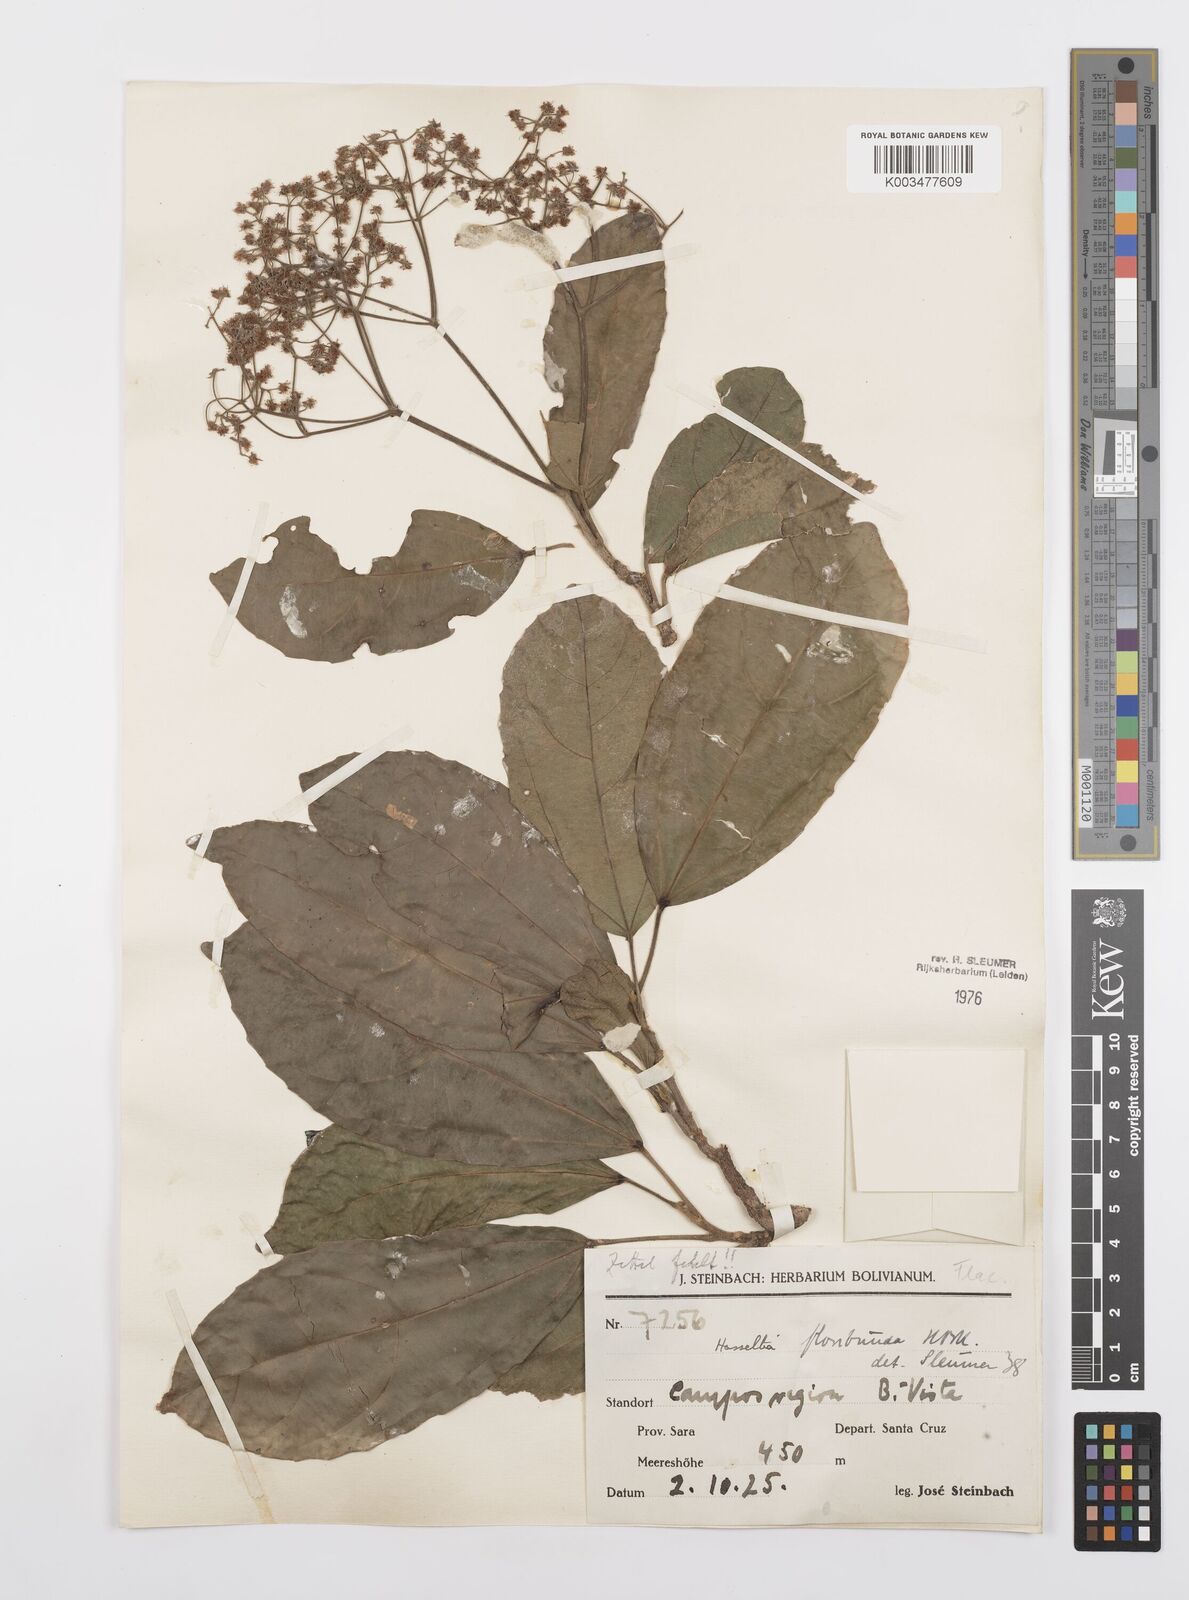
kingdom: Plantae
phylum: Tracheophyta
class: Magnoliopsida
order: Malpighiales
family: Salicaceae
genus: Hasseltia
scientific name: Hasseltia floribunda
